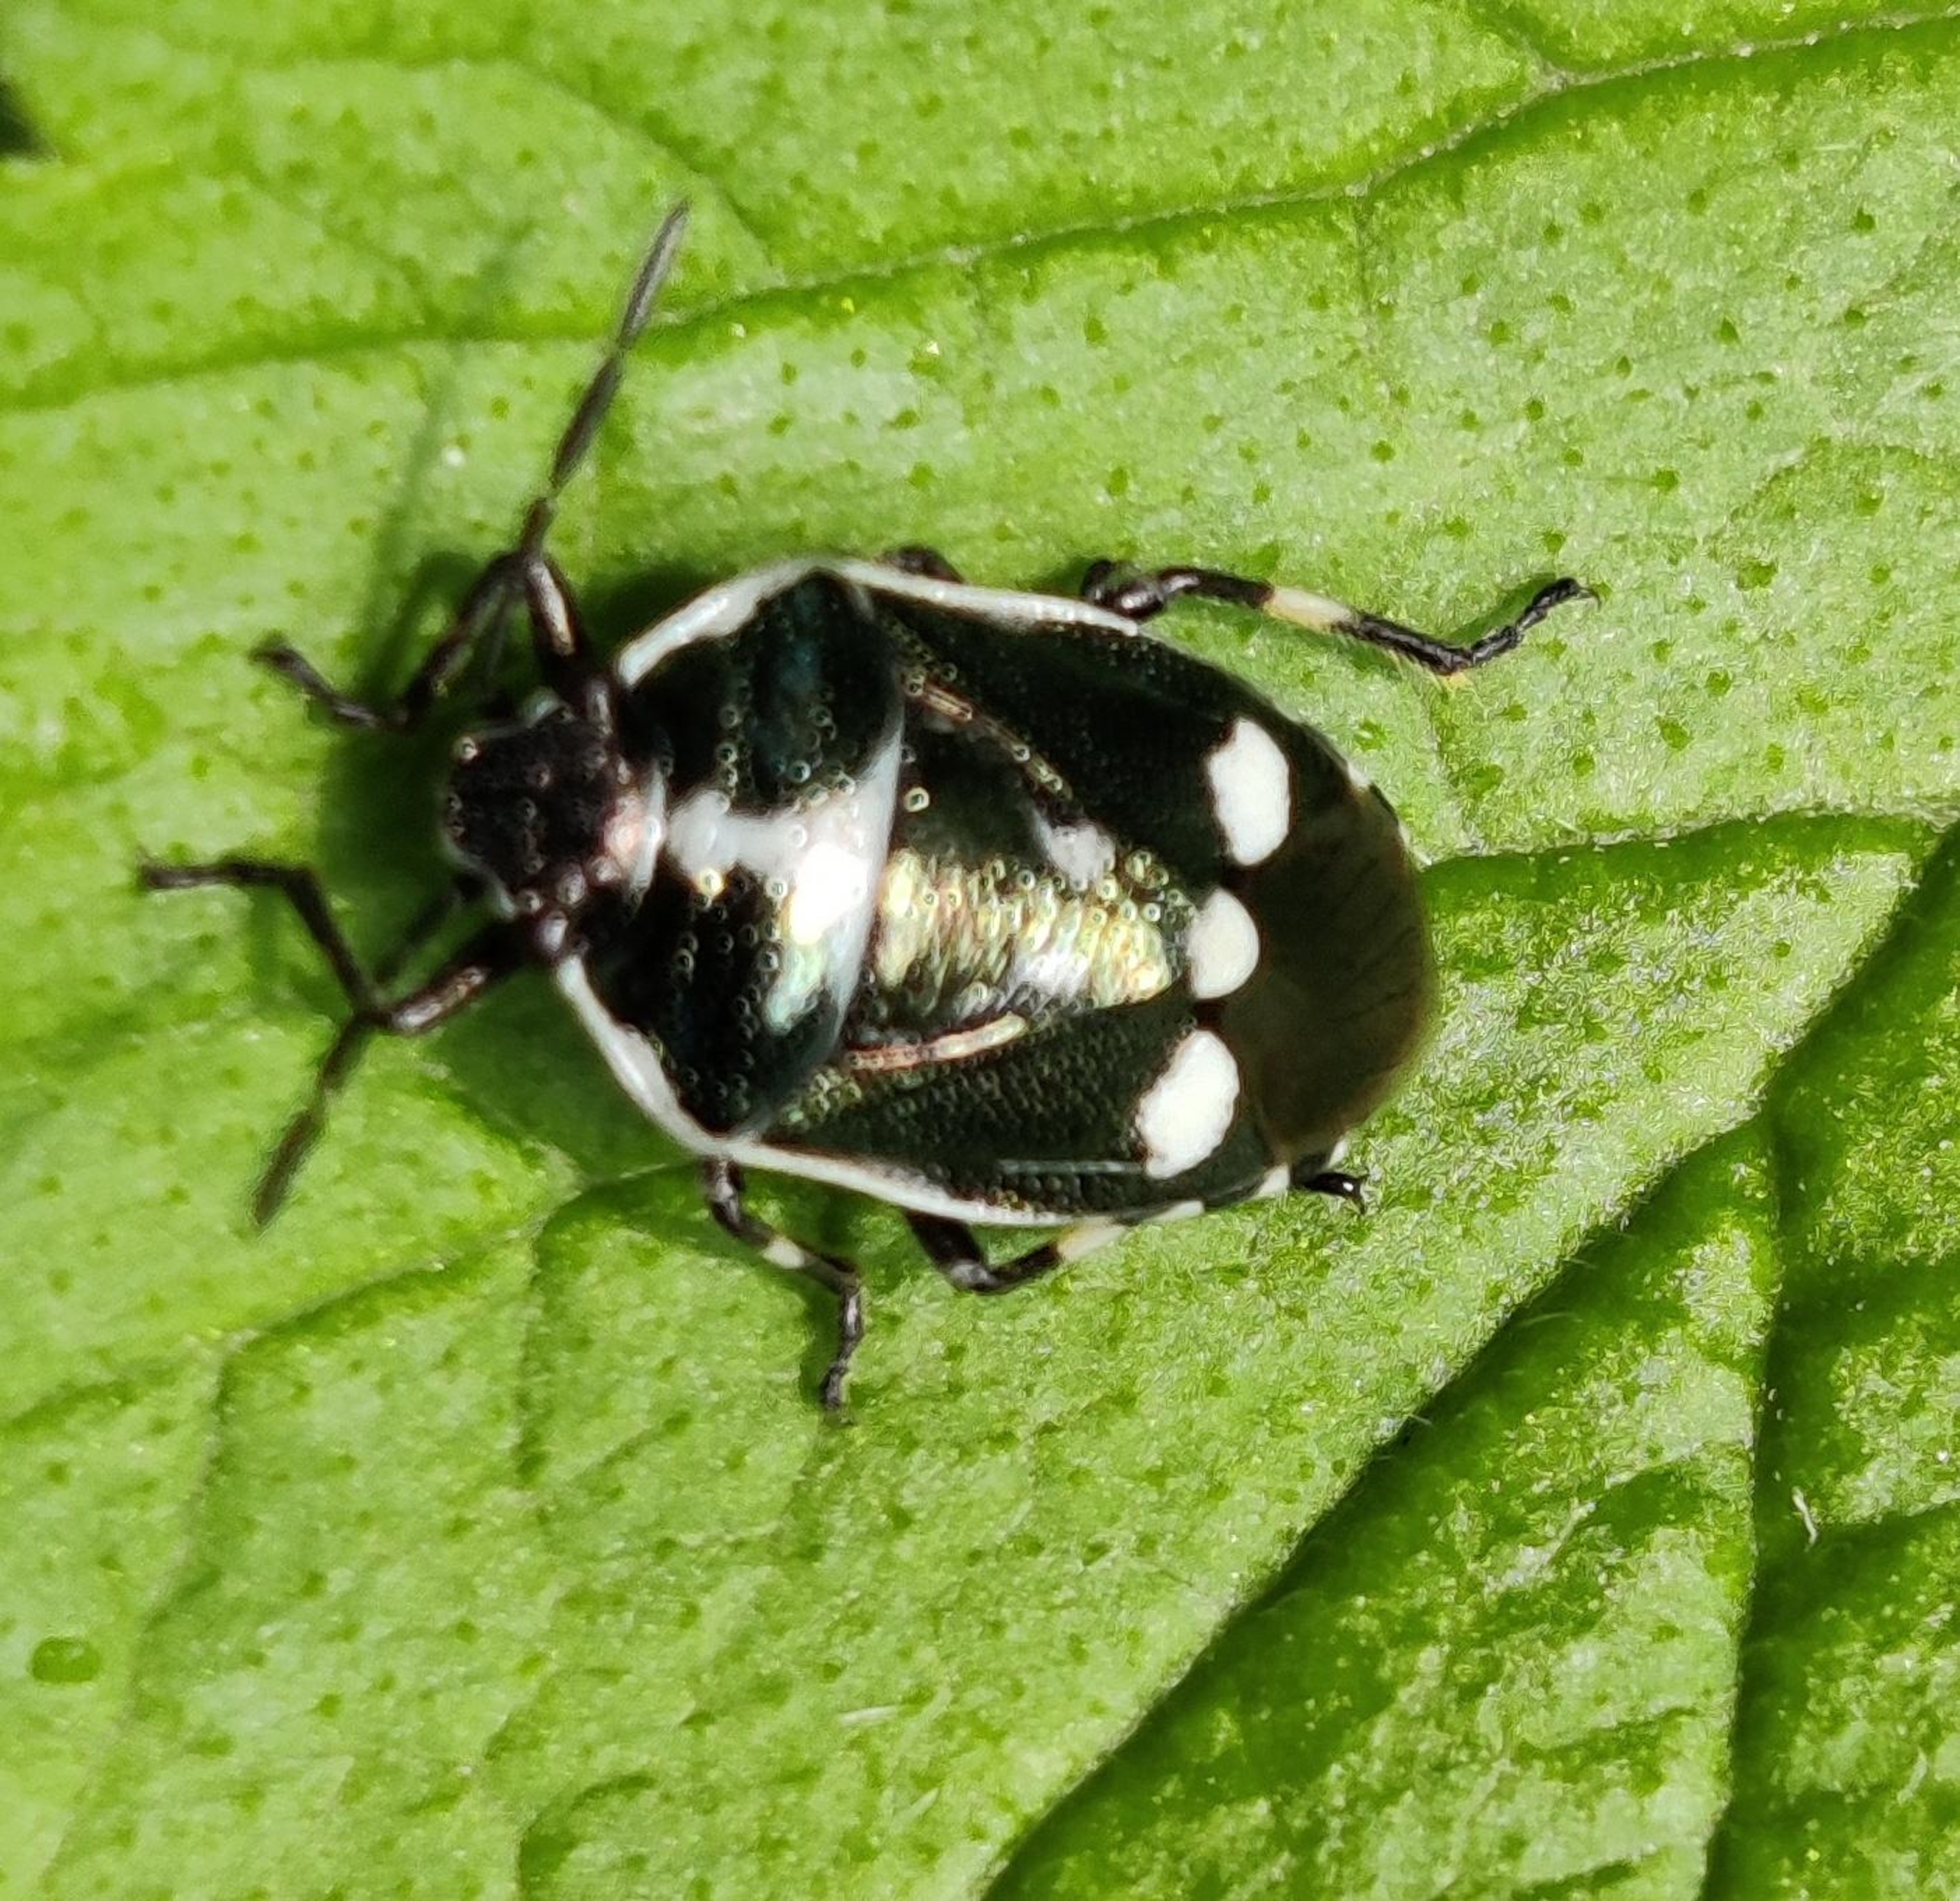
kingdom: Animalia
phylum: Arthropoda
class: Insecta
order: Hemiptera
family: Pentatomidae
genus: Eurydema
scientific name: Eurydema oleracea
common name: Almindelig kåltæge
